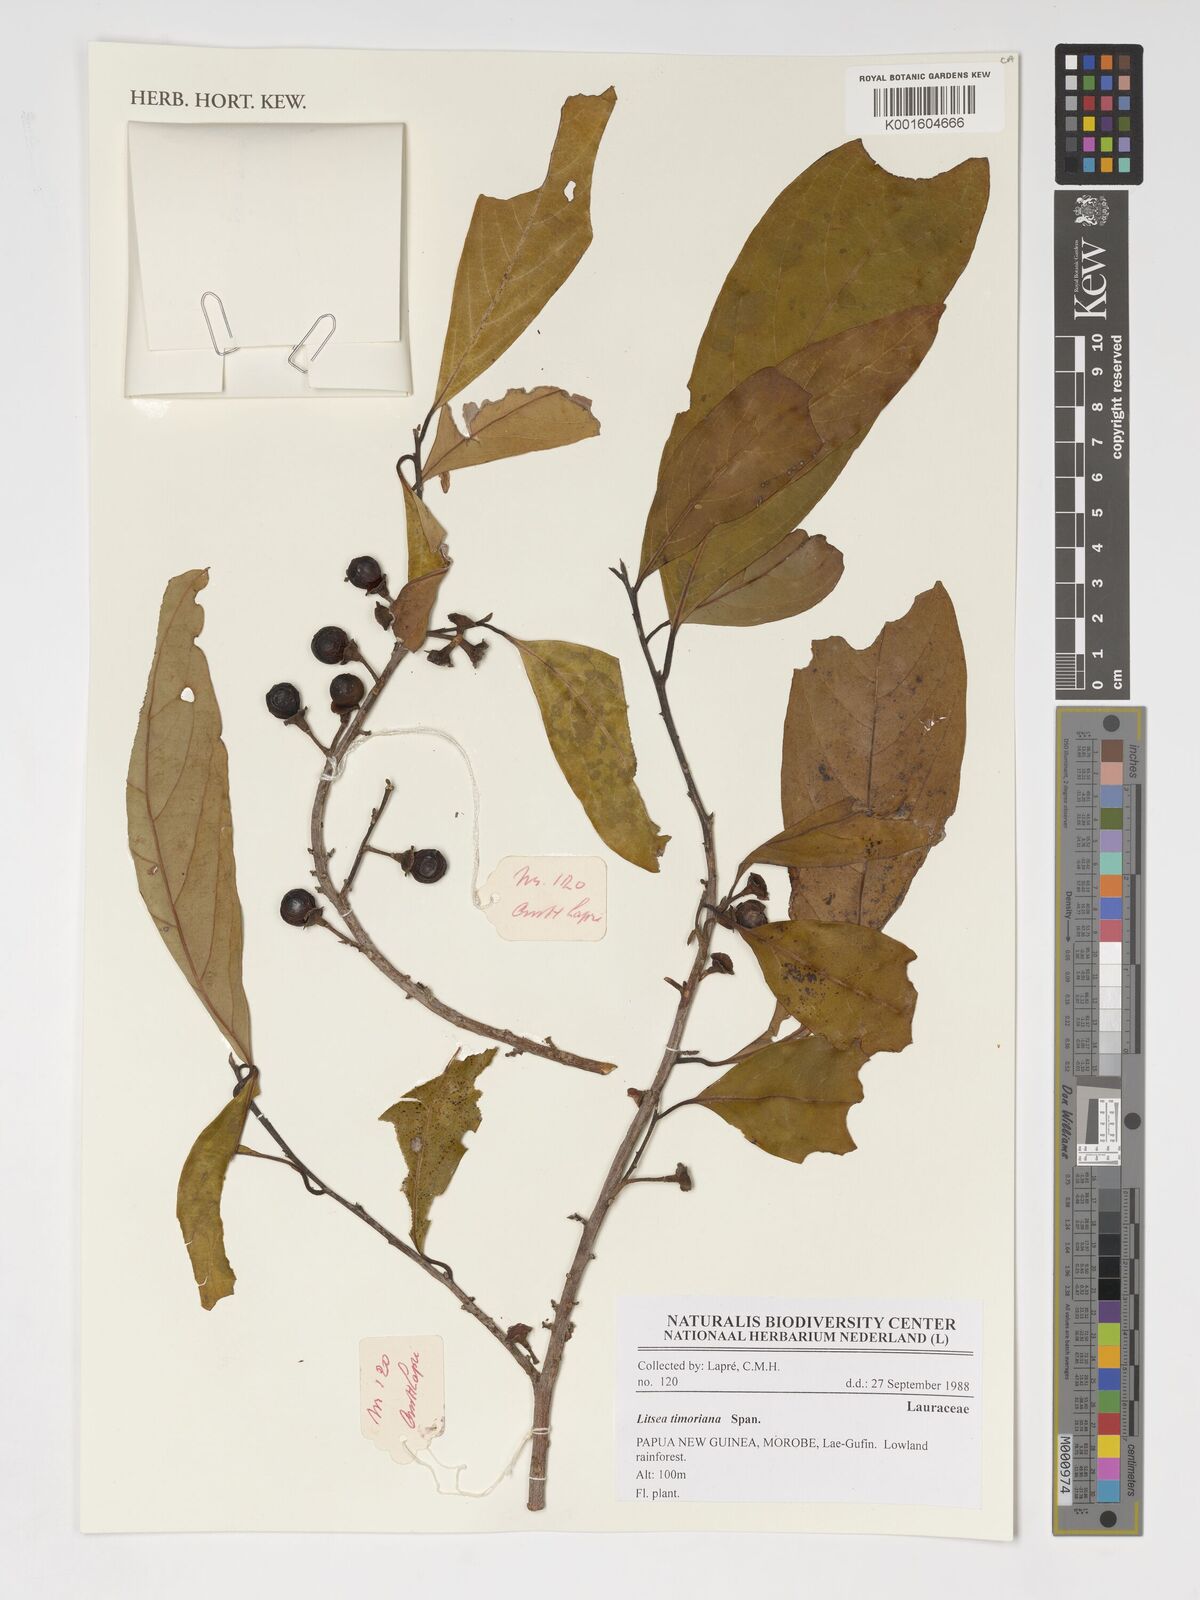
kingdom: Plantae
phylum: Tracheophyta
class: Magnoliopsida
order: Laurales
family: Lauraceae
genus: Litsea
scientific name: Litsea timoriana
